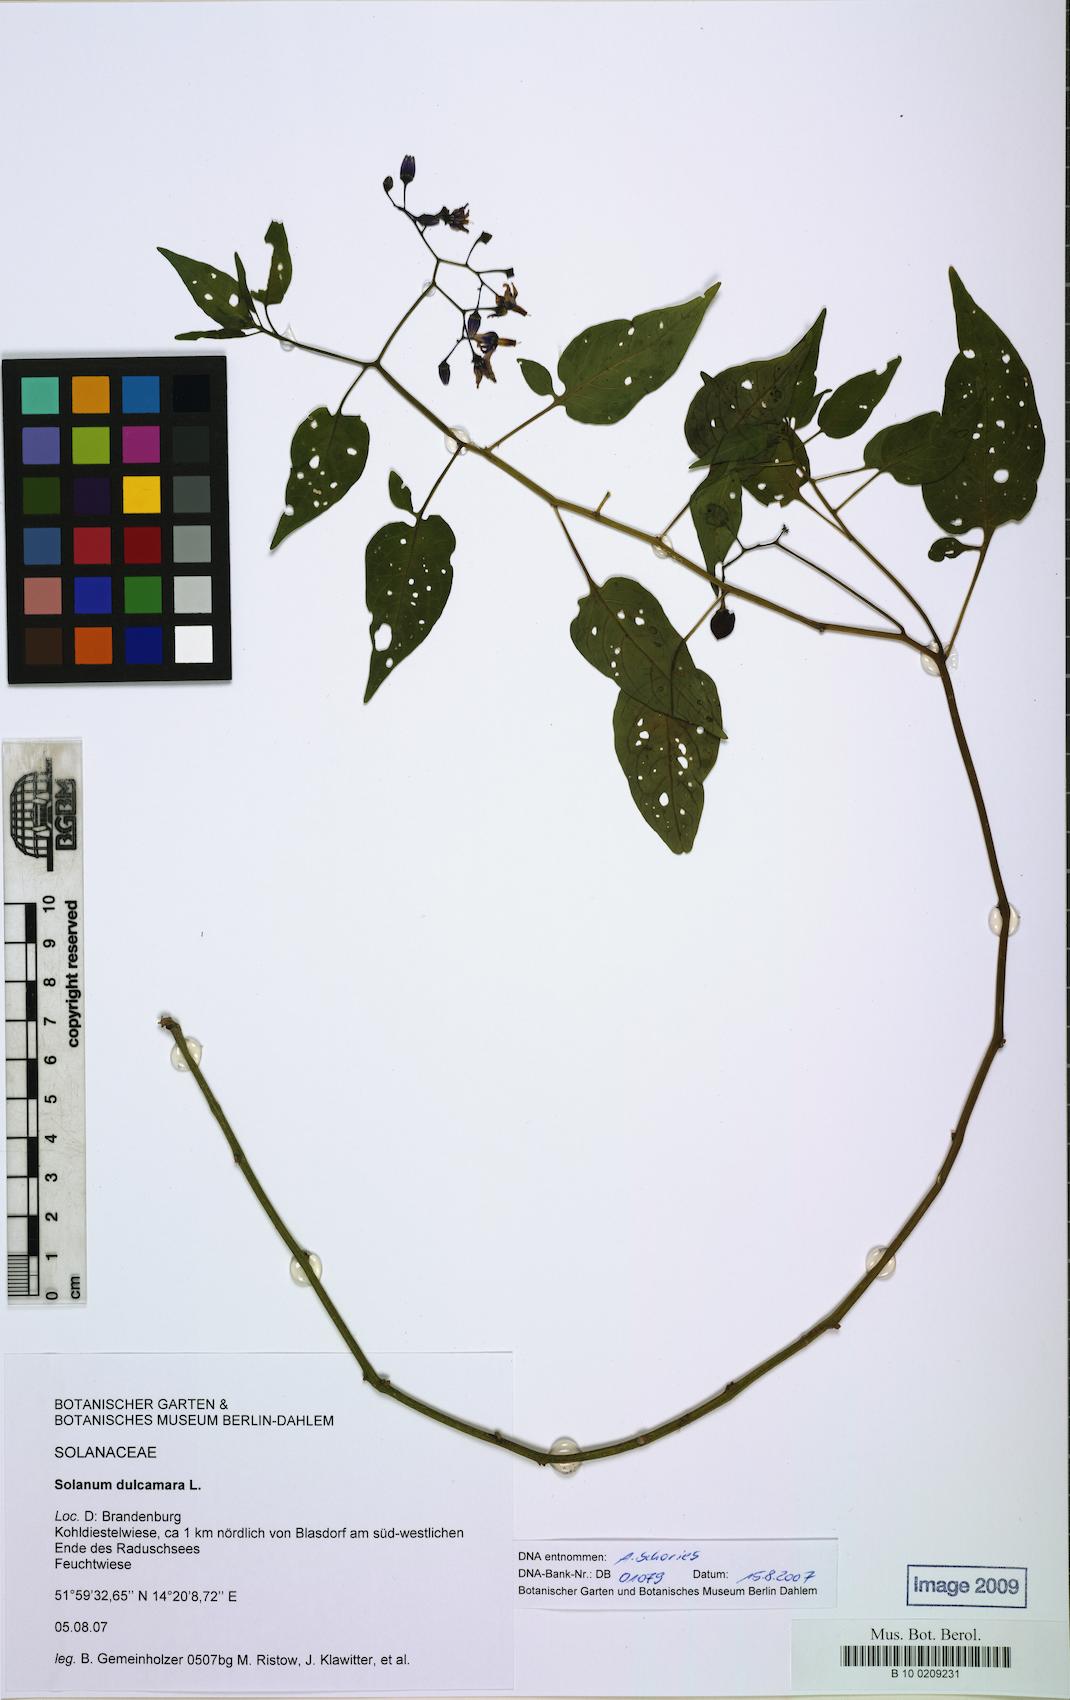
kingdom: Plantae
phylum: Tracheophyta
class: Magnoliopsida
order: Solanales
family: Solanaceae
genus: Solanum
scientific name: Solanum dulcamara
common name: Climbing nightshade
